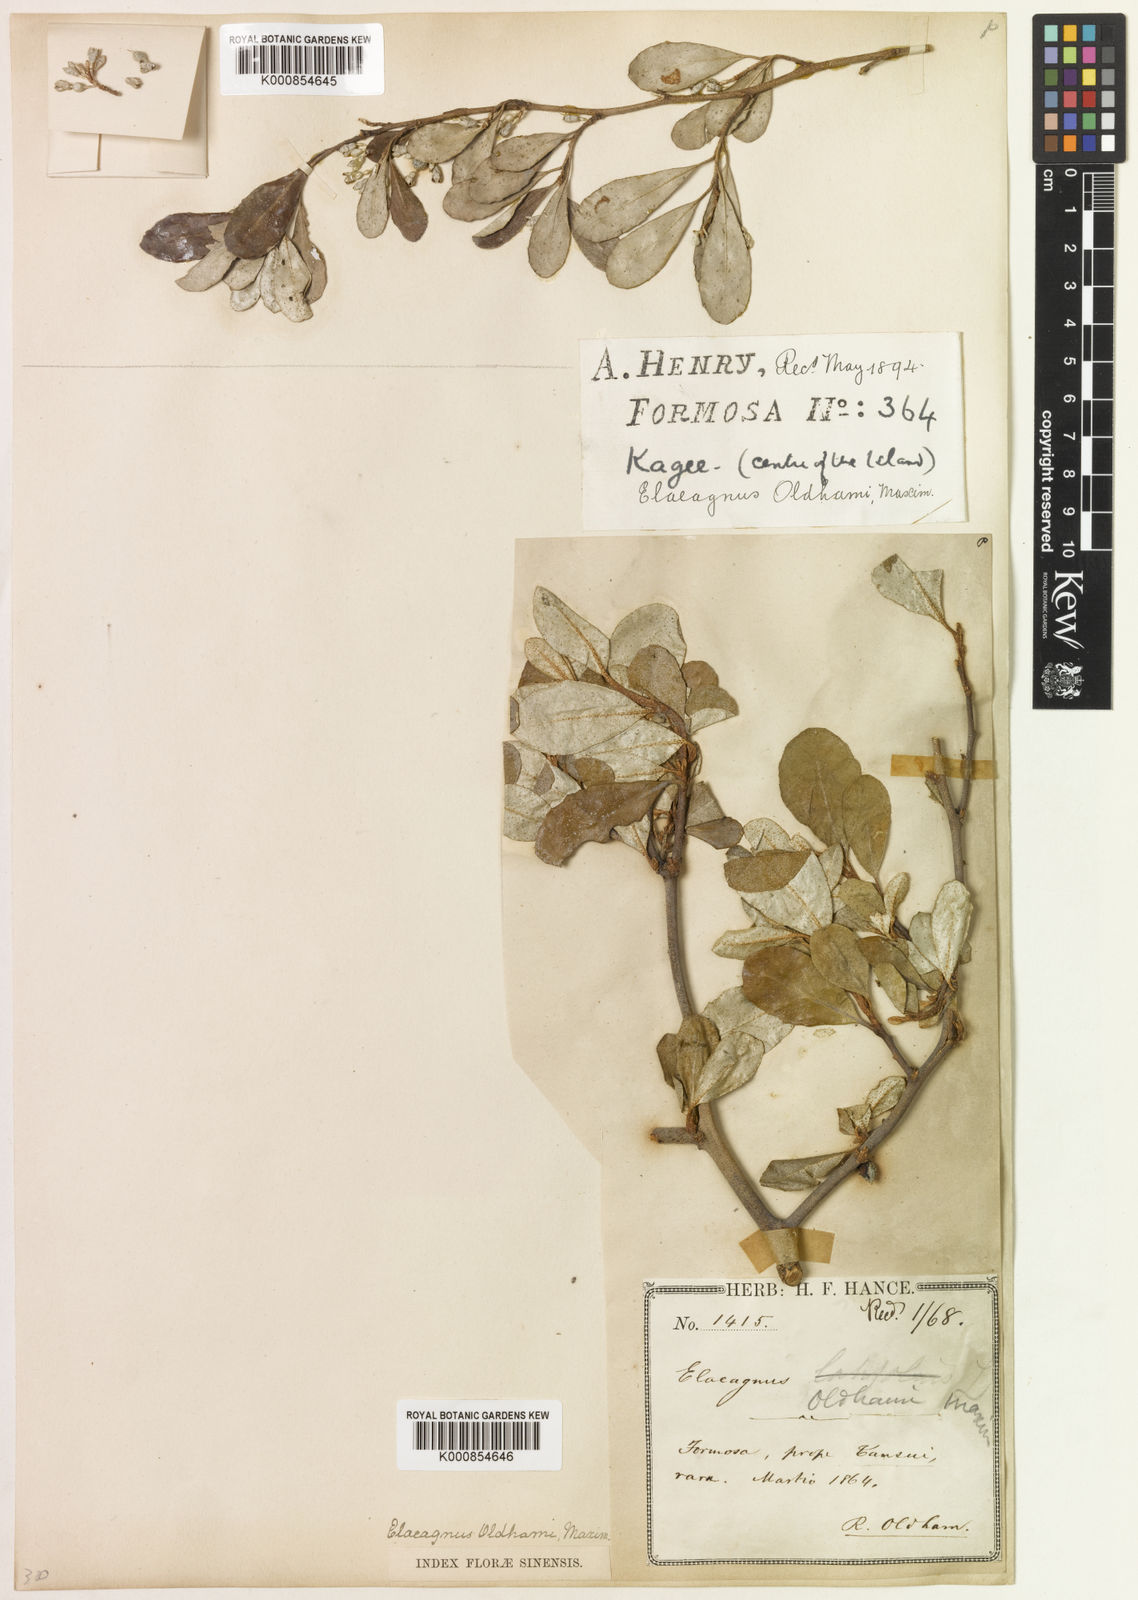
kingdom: Plantae
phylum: Tracheophyta
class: Magnoliopsida
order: Rosales
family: Elaeagnaceae
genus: Elaeagnus
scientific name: Elaeagnus oldhamii
